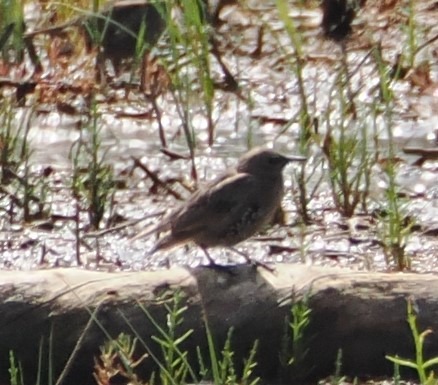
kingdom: Animalia
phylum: Chordata
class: Aves
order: Passeriformes
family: Sturnidae
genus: Sturnus
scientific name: Sturnus vulgaris
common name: Stær
